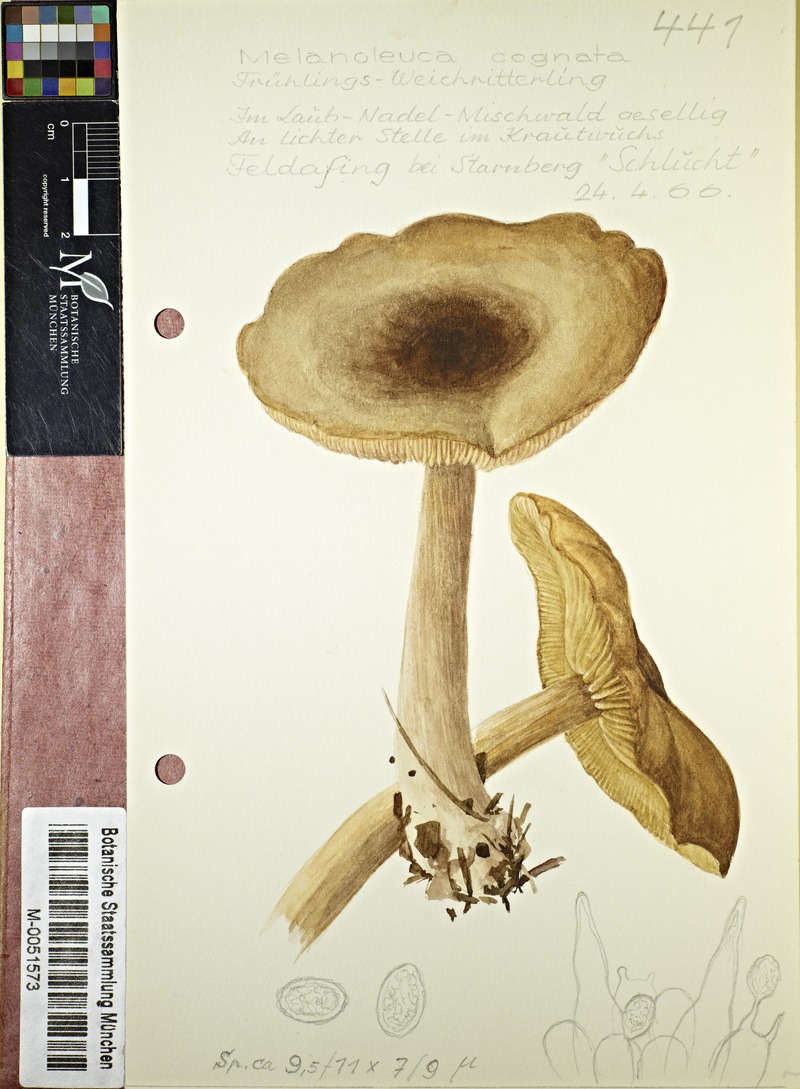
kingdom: Fungi
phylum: Basidiomycota
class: Agaricomycetes
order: Agaricales
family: Tricholomataceae
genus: Melanoleuca
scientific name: Melanoleuca cognata
